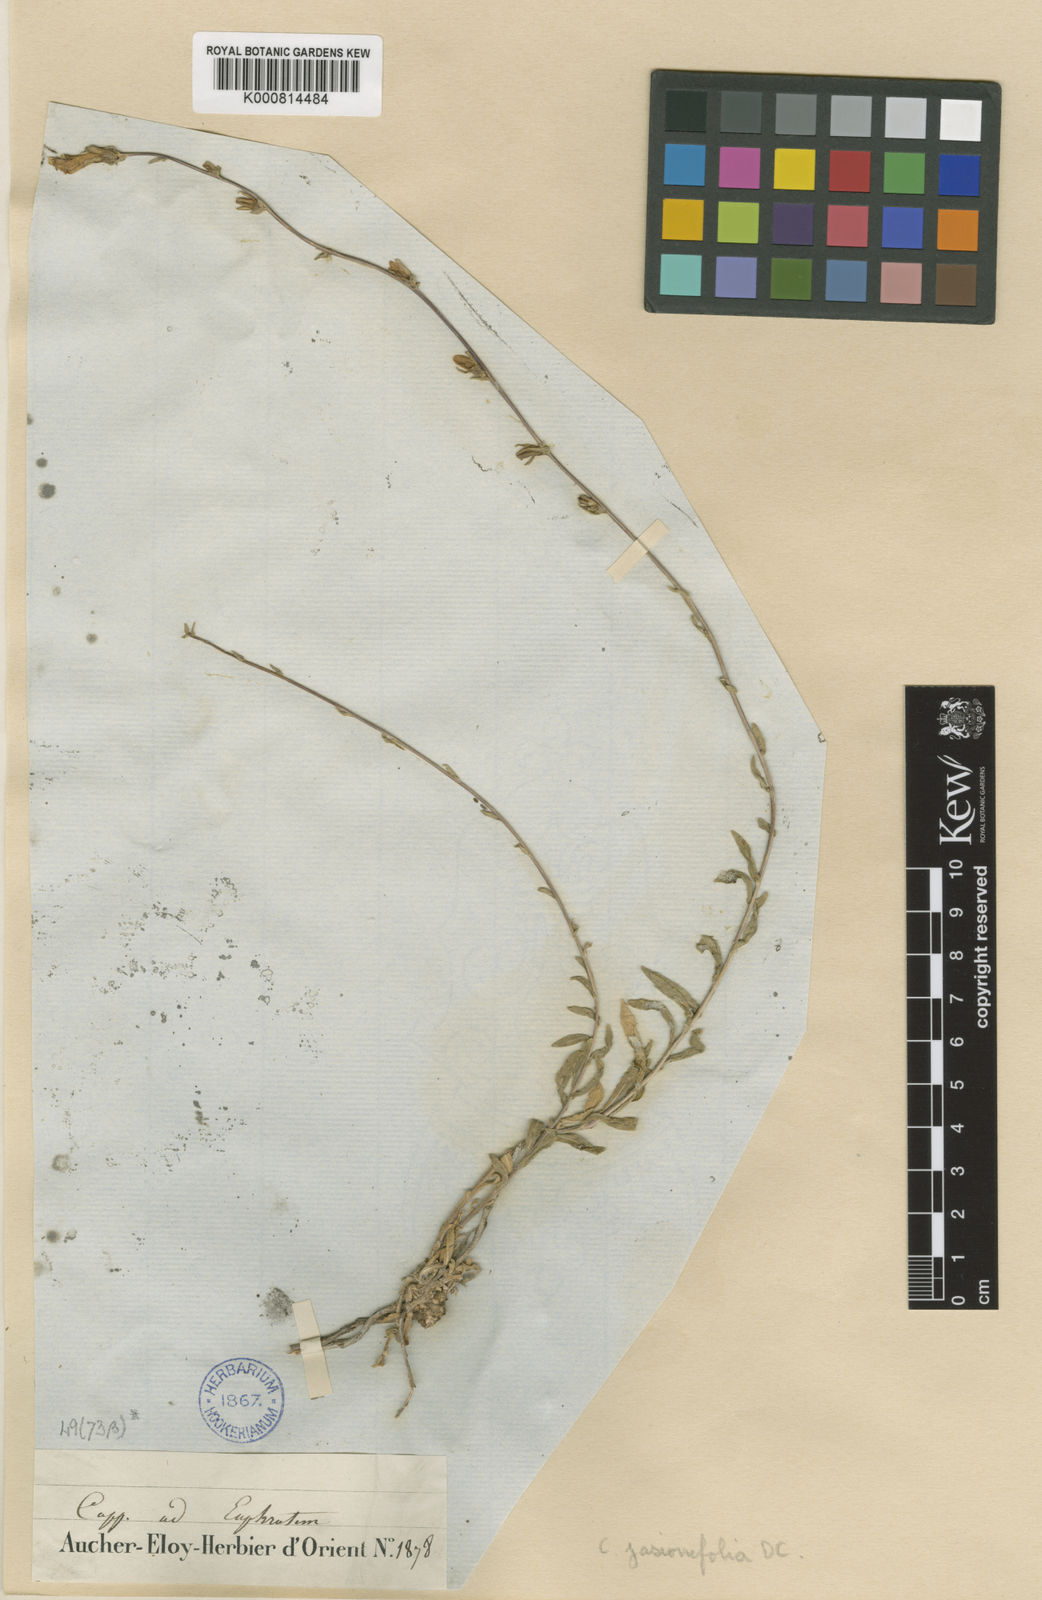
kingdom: Plantae
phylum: Tracheophyta
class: Magnoliopsida
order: Asterales
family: Campanulaceae
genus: Campanula
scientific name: Campanula stricta
